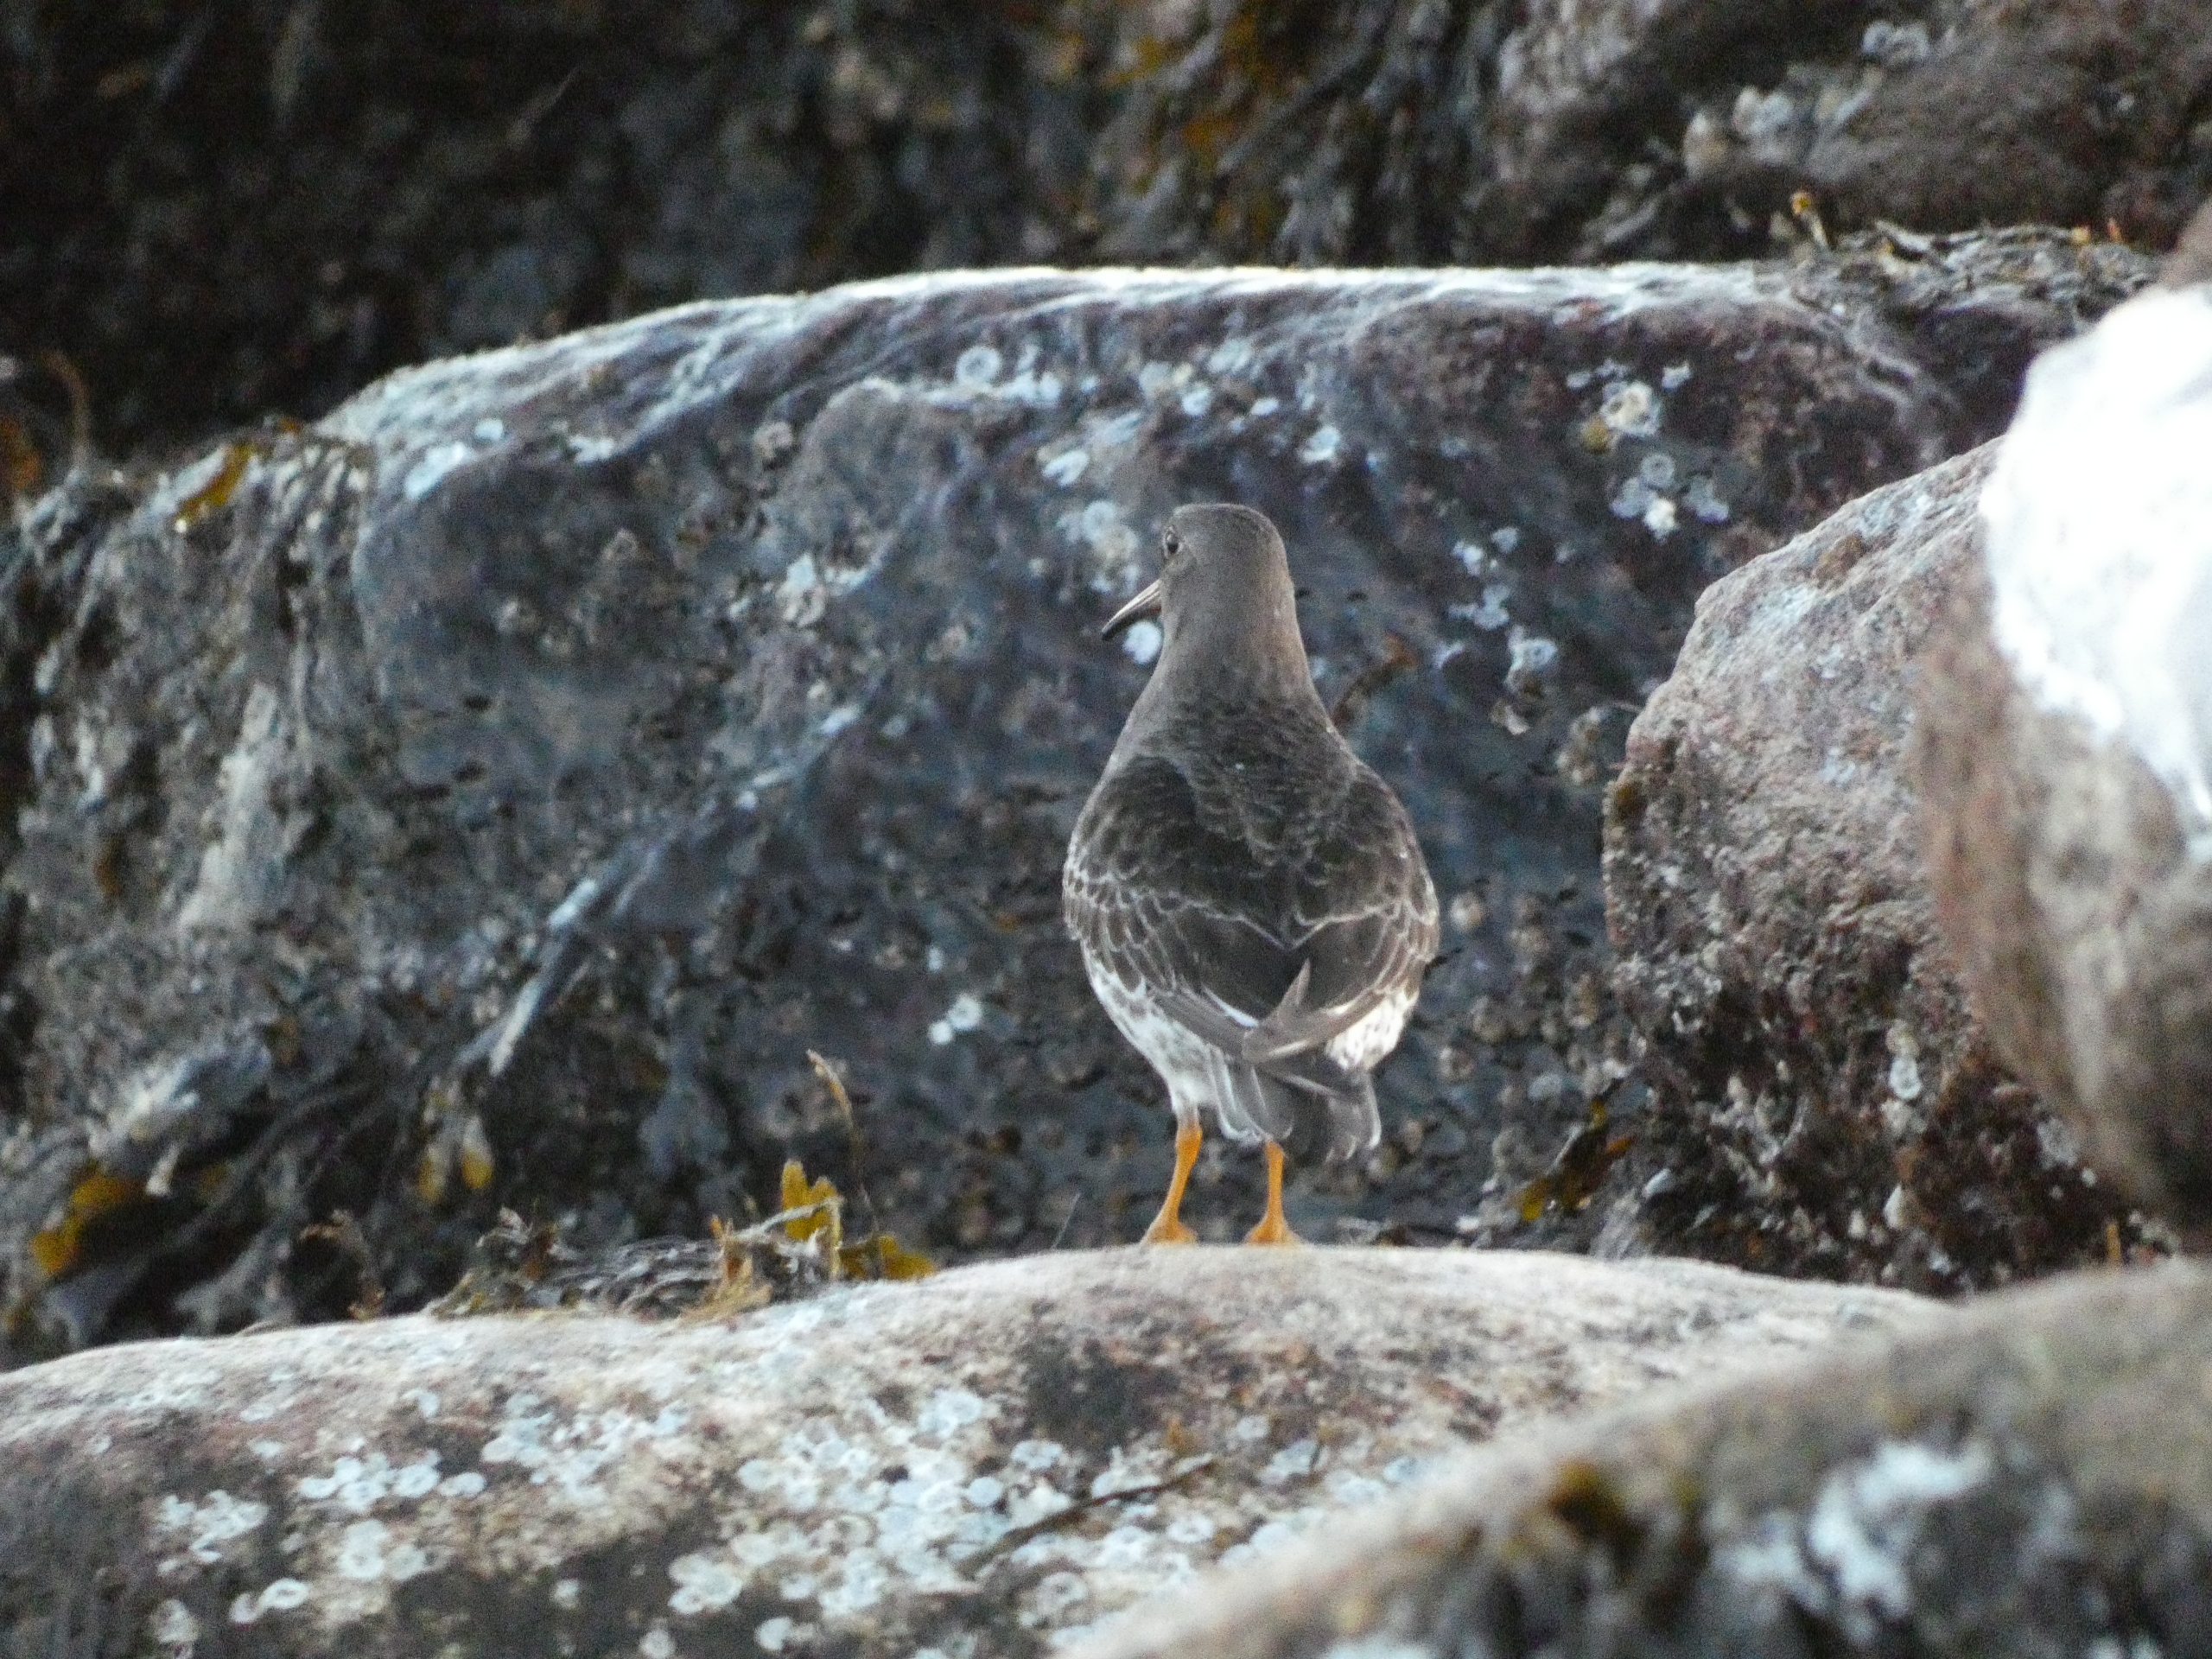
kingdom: Animalia
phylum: Chordata
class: Aves
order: Charadriiformes
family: Scolopacidae
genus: Calidris
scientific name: Calidris maritima
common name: Sortgrå ryle
